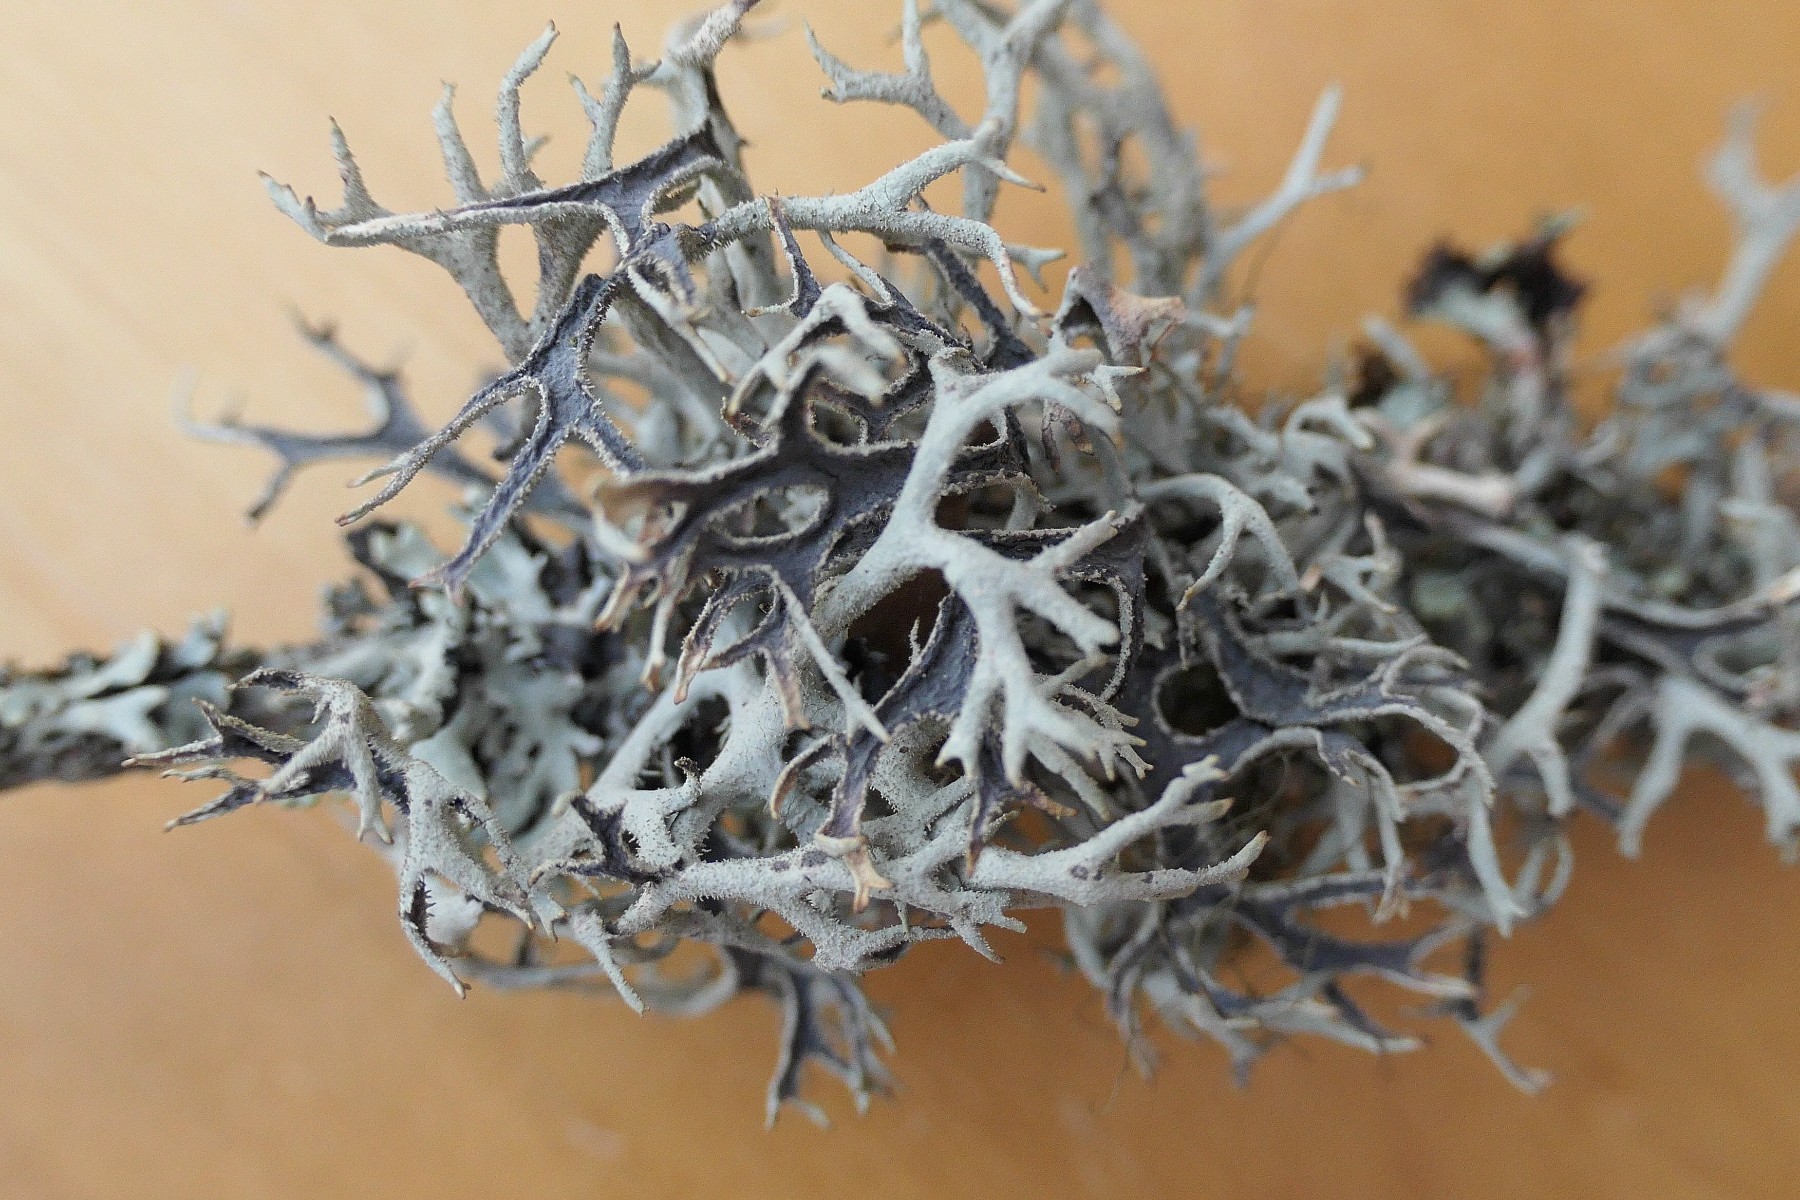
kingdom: Fungi
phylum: Ascomycota
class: Lecanoromycetes
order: Lecanorales
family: Parmeliaceae
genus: Pseudevernia
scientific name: Pseudevernia furfuracea
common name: grå fyrrelav
